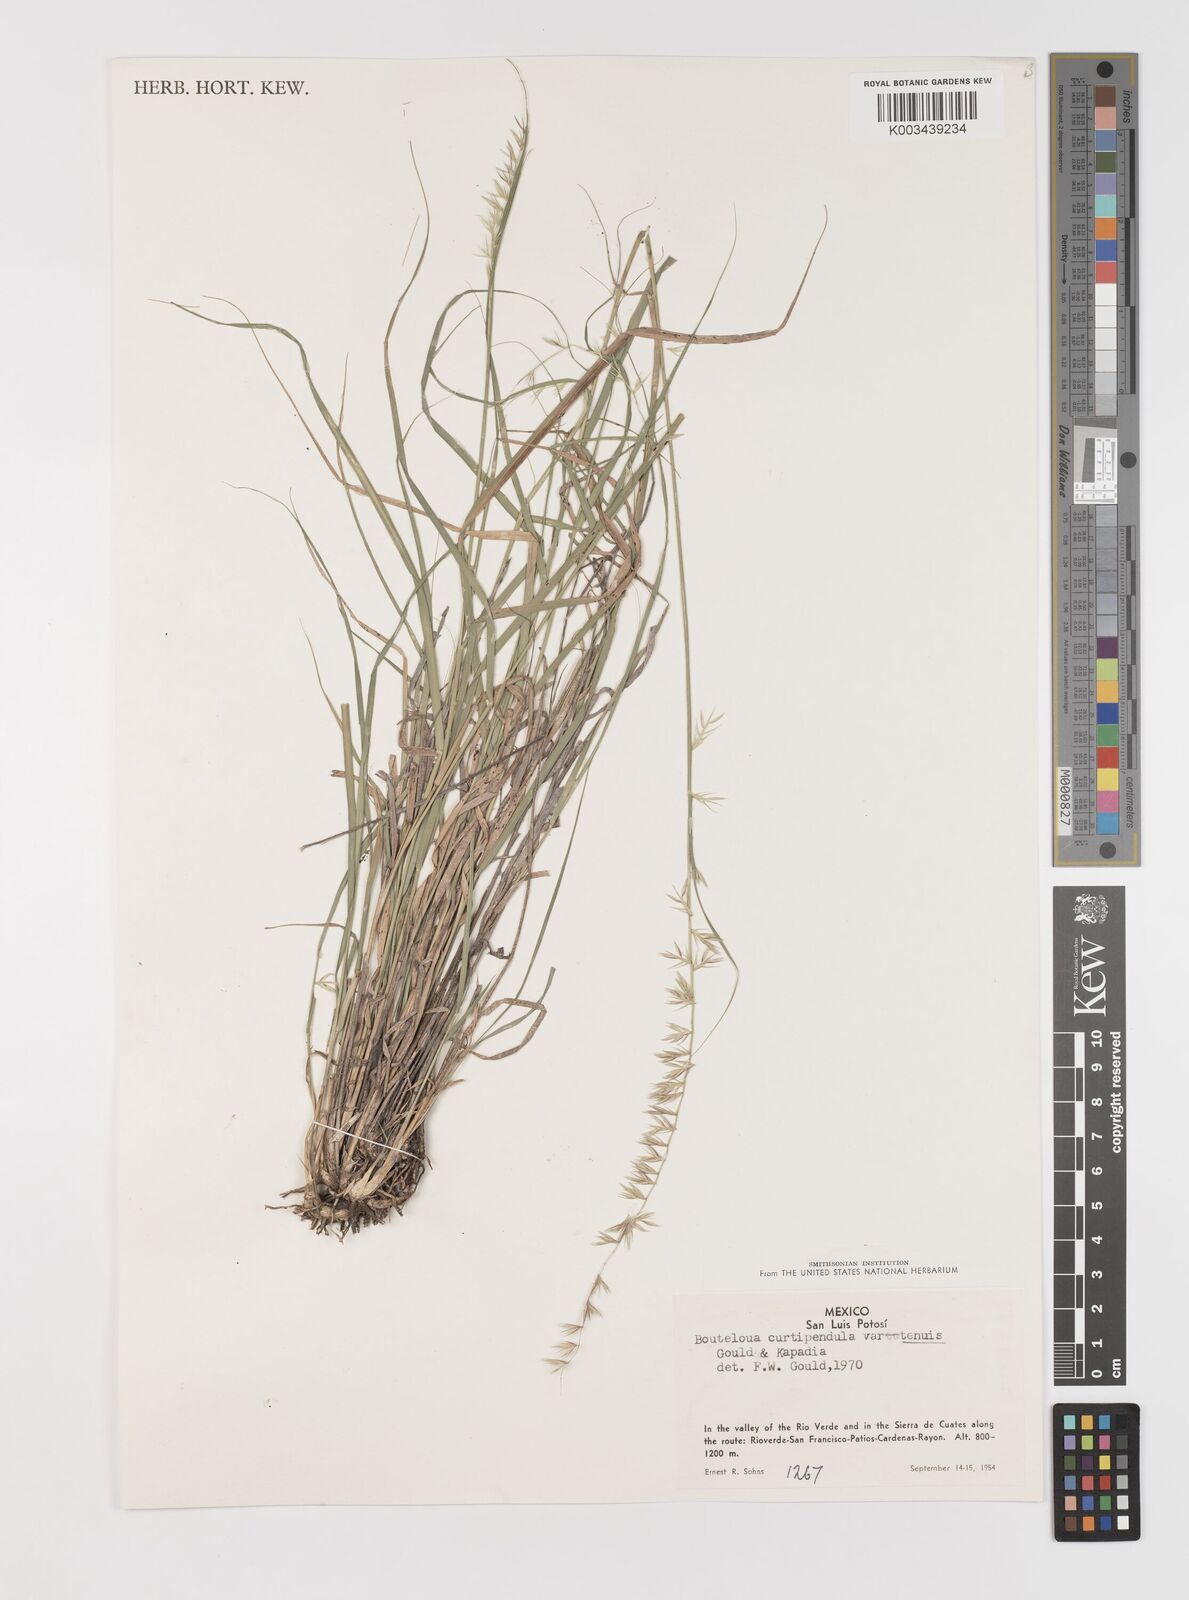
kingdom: Plantae
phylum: Tracheophyta
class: Liliopsida
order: Poales
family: Poaceae
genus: Bouteloua
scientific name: Bouteloua curtipendula
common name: Side-oats grama
